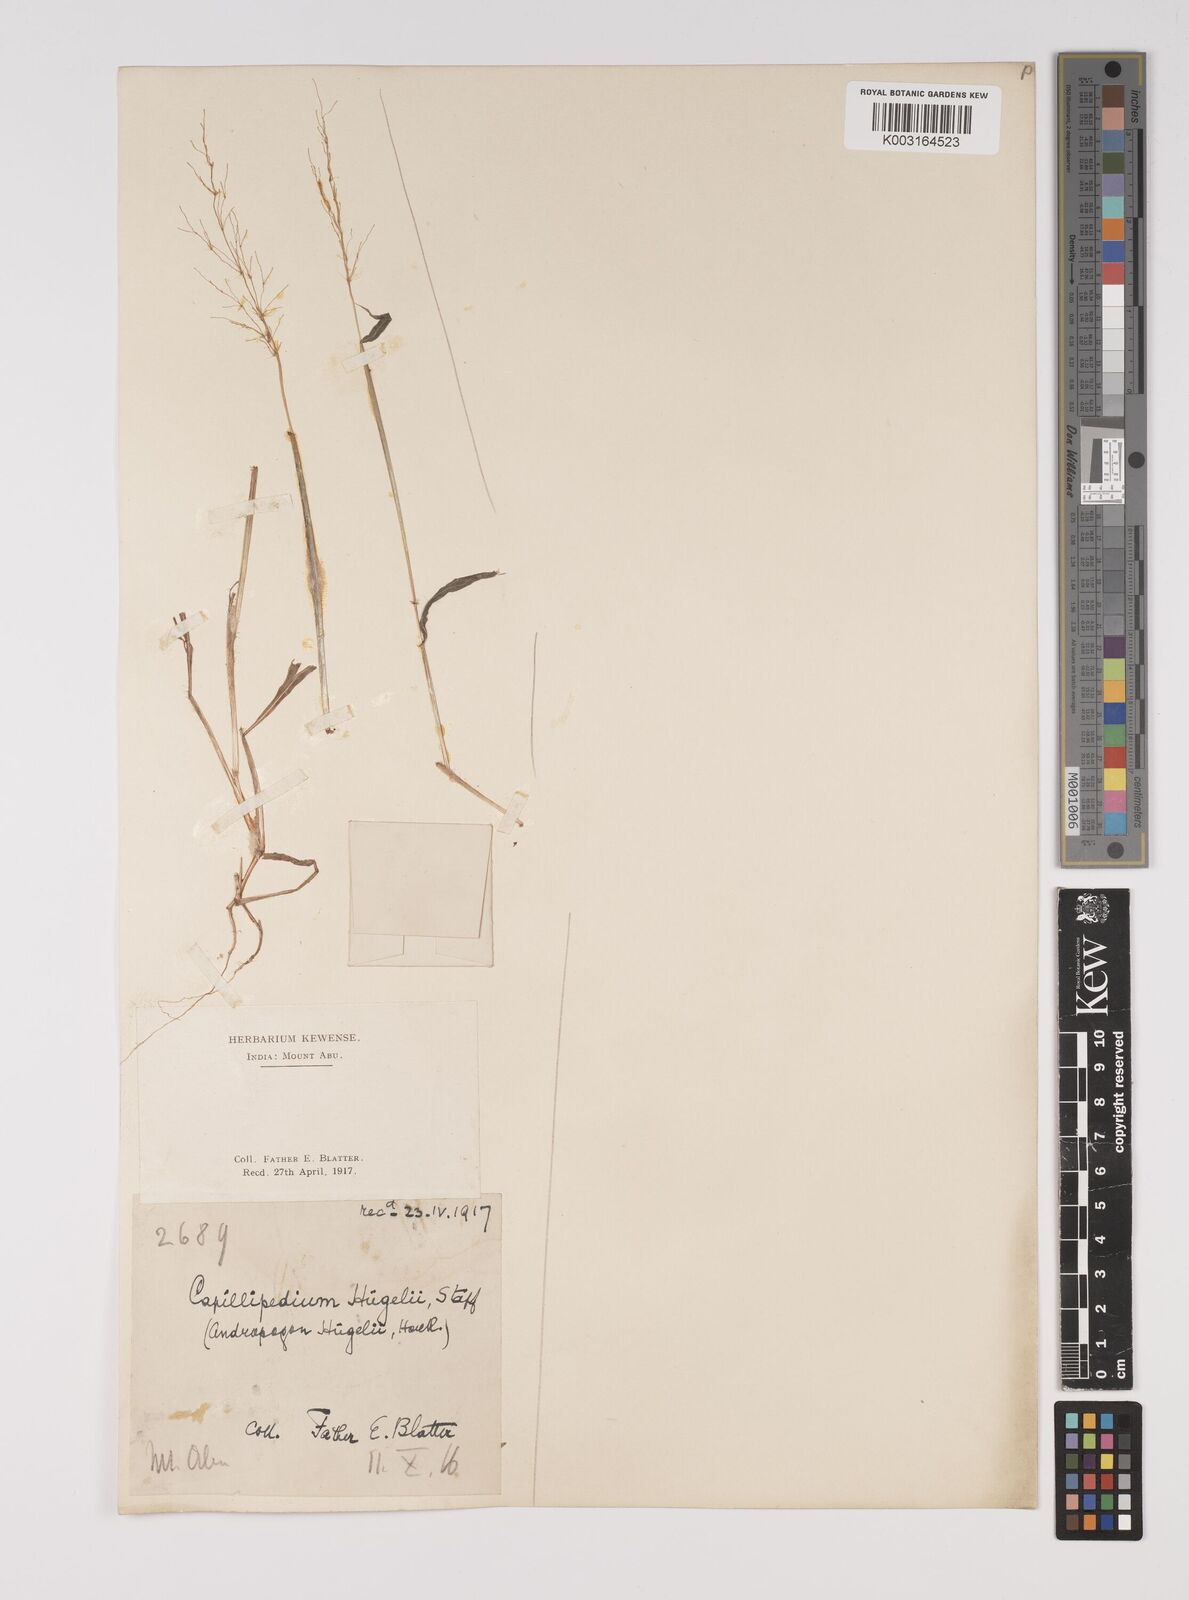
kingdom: Plantae
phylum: Tracheophyta
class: Liliopsida
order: Poales
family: Poaceae
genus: Capillipedium
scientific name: Capillipedium huegelii
